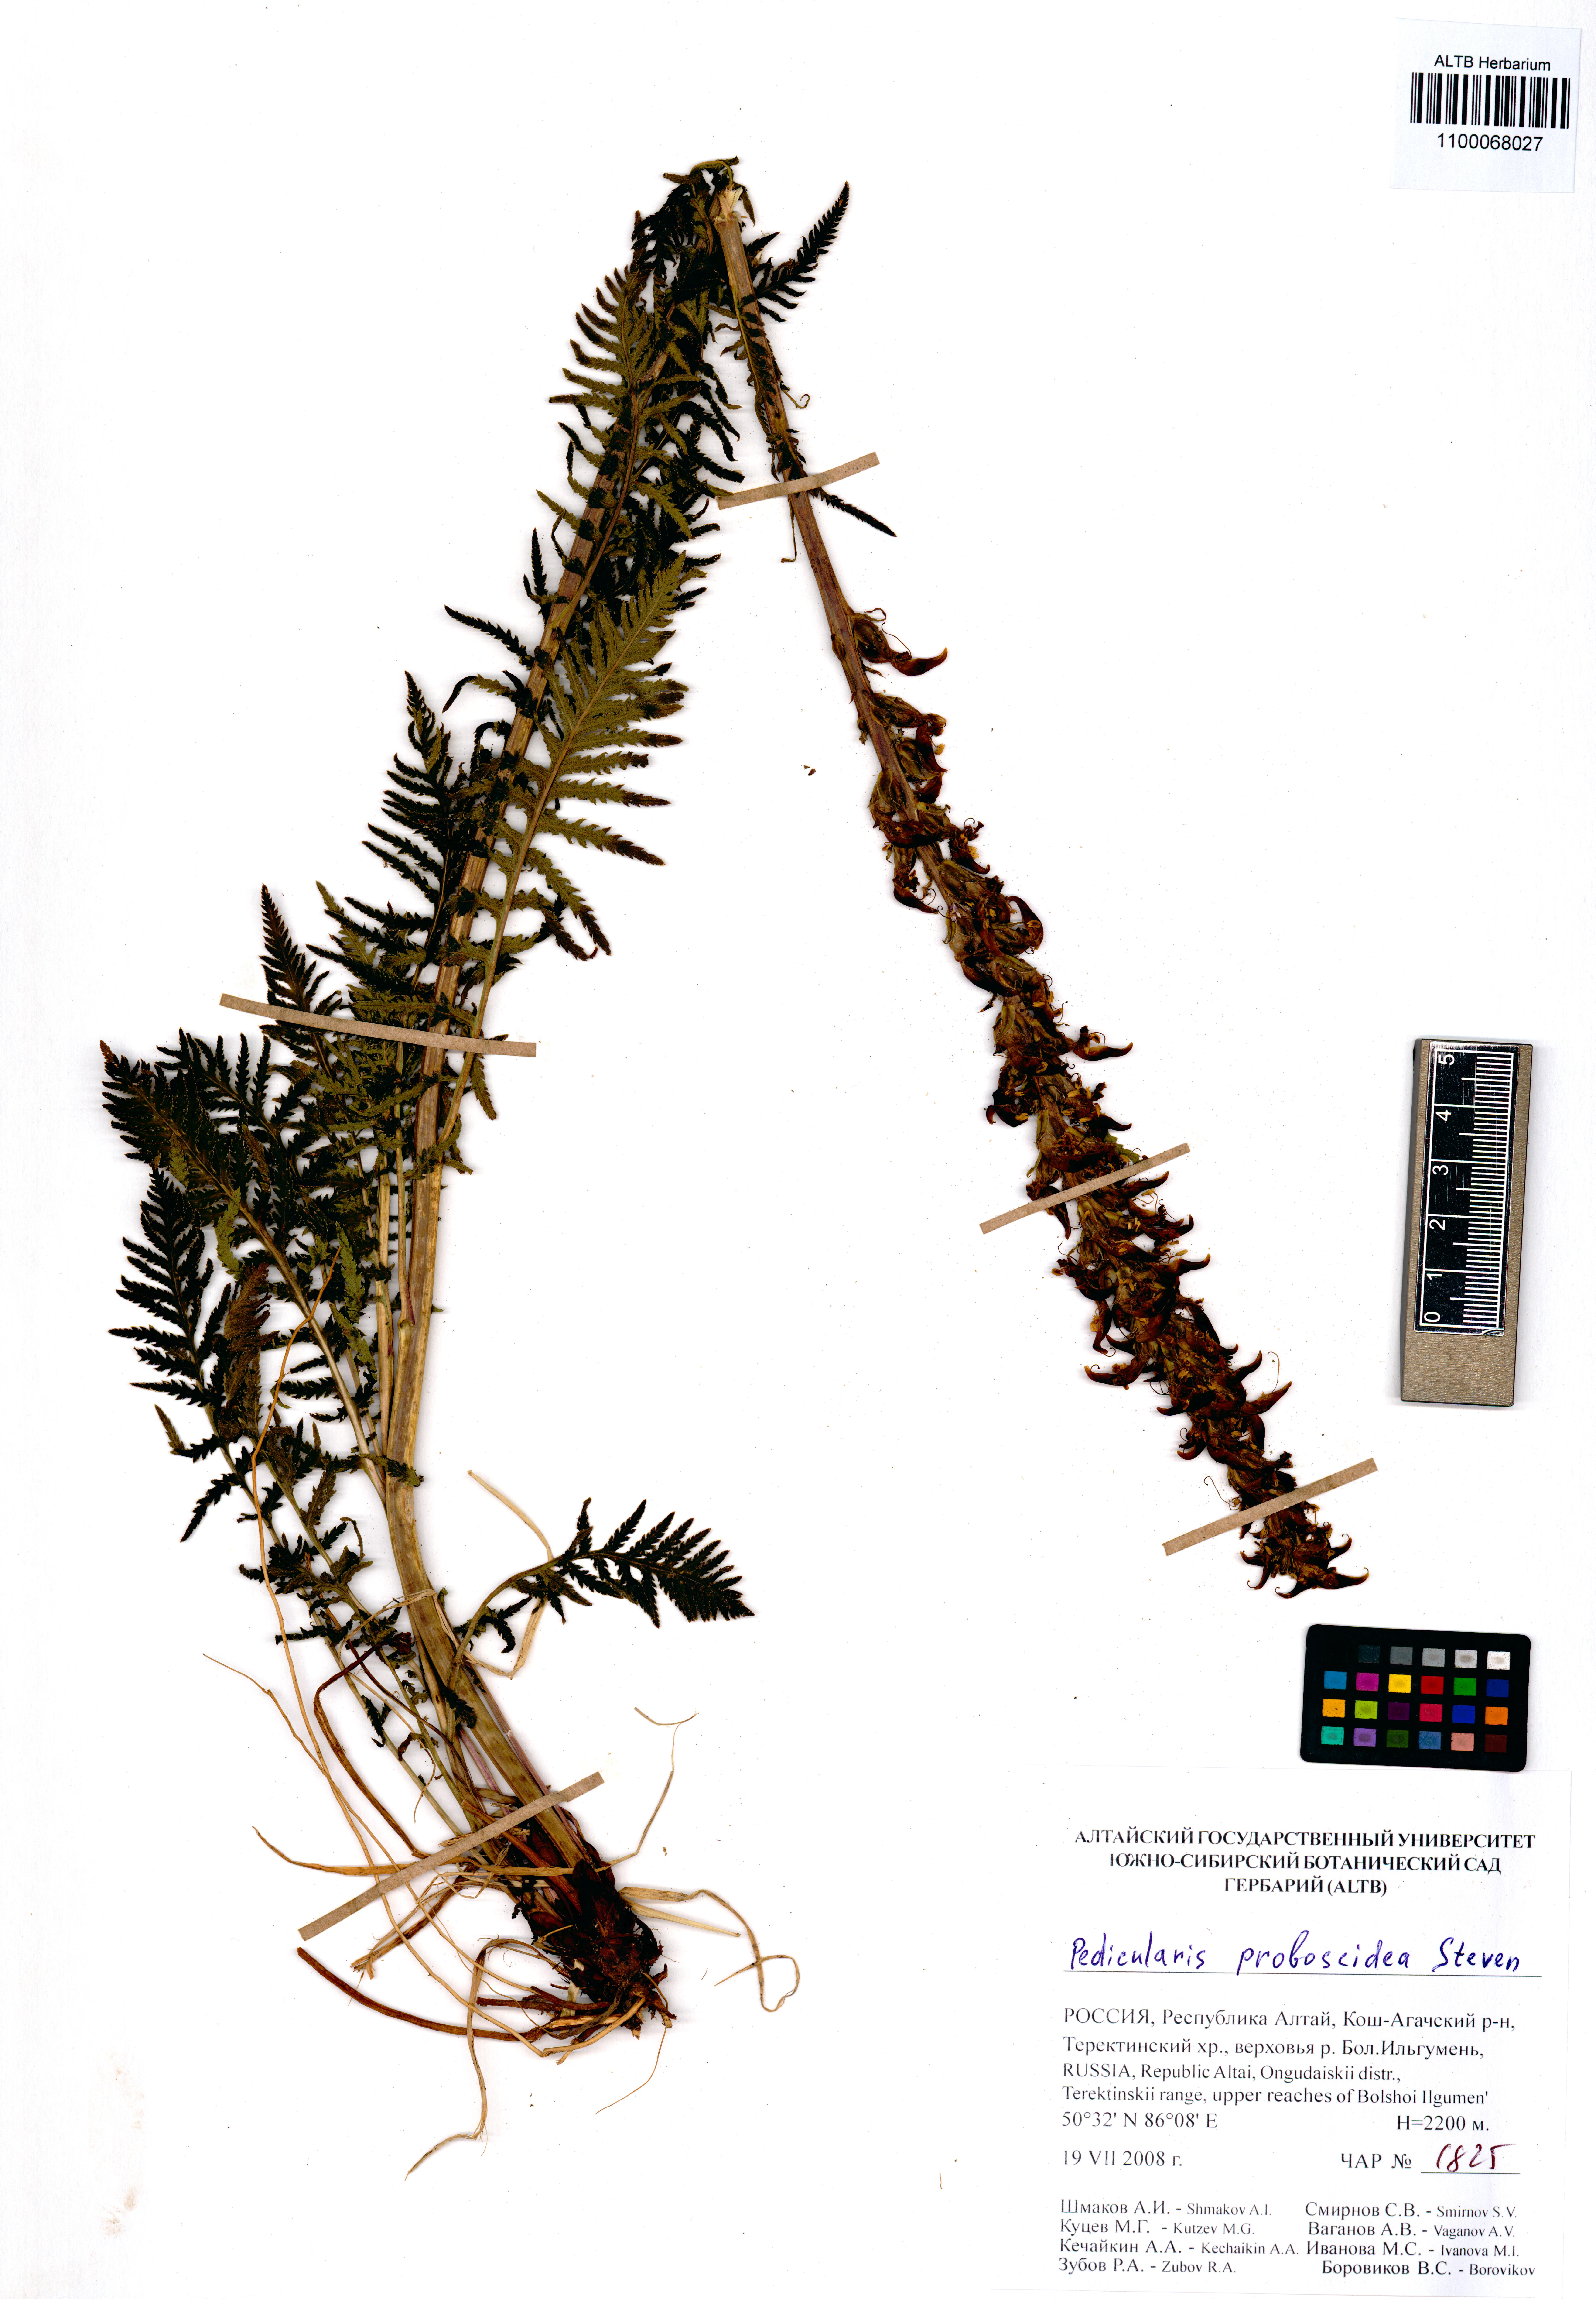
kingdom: Plantae
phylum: Tracheophyta
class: Magnoliopsida
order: Lamiales
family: Orobanchaceae
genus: Pedicularis
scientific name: Pedicularis cenisia
